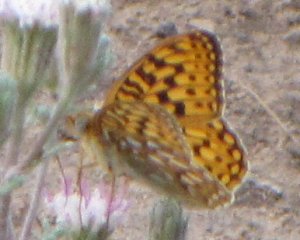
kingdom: Animalia
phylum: Arthropoda
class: Insecta
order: Lepidoptera
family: Nymphalidae
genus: Speyeria
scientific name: Speyeria callippe
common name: Callippe Fritillary
